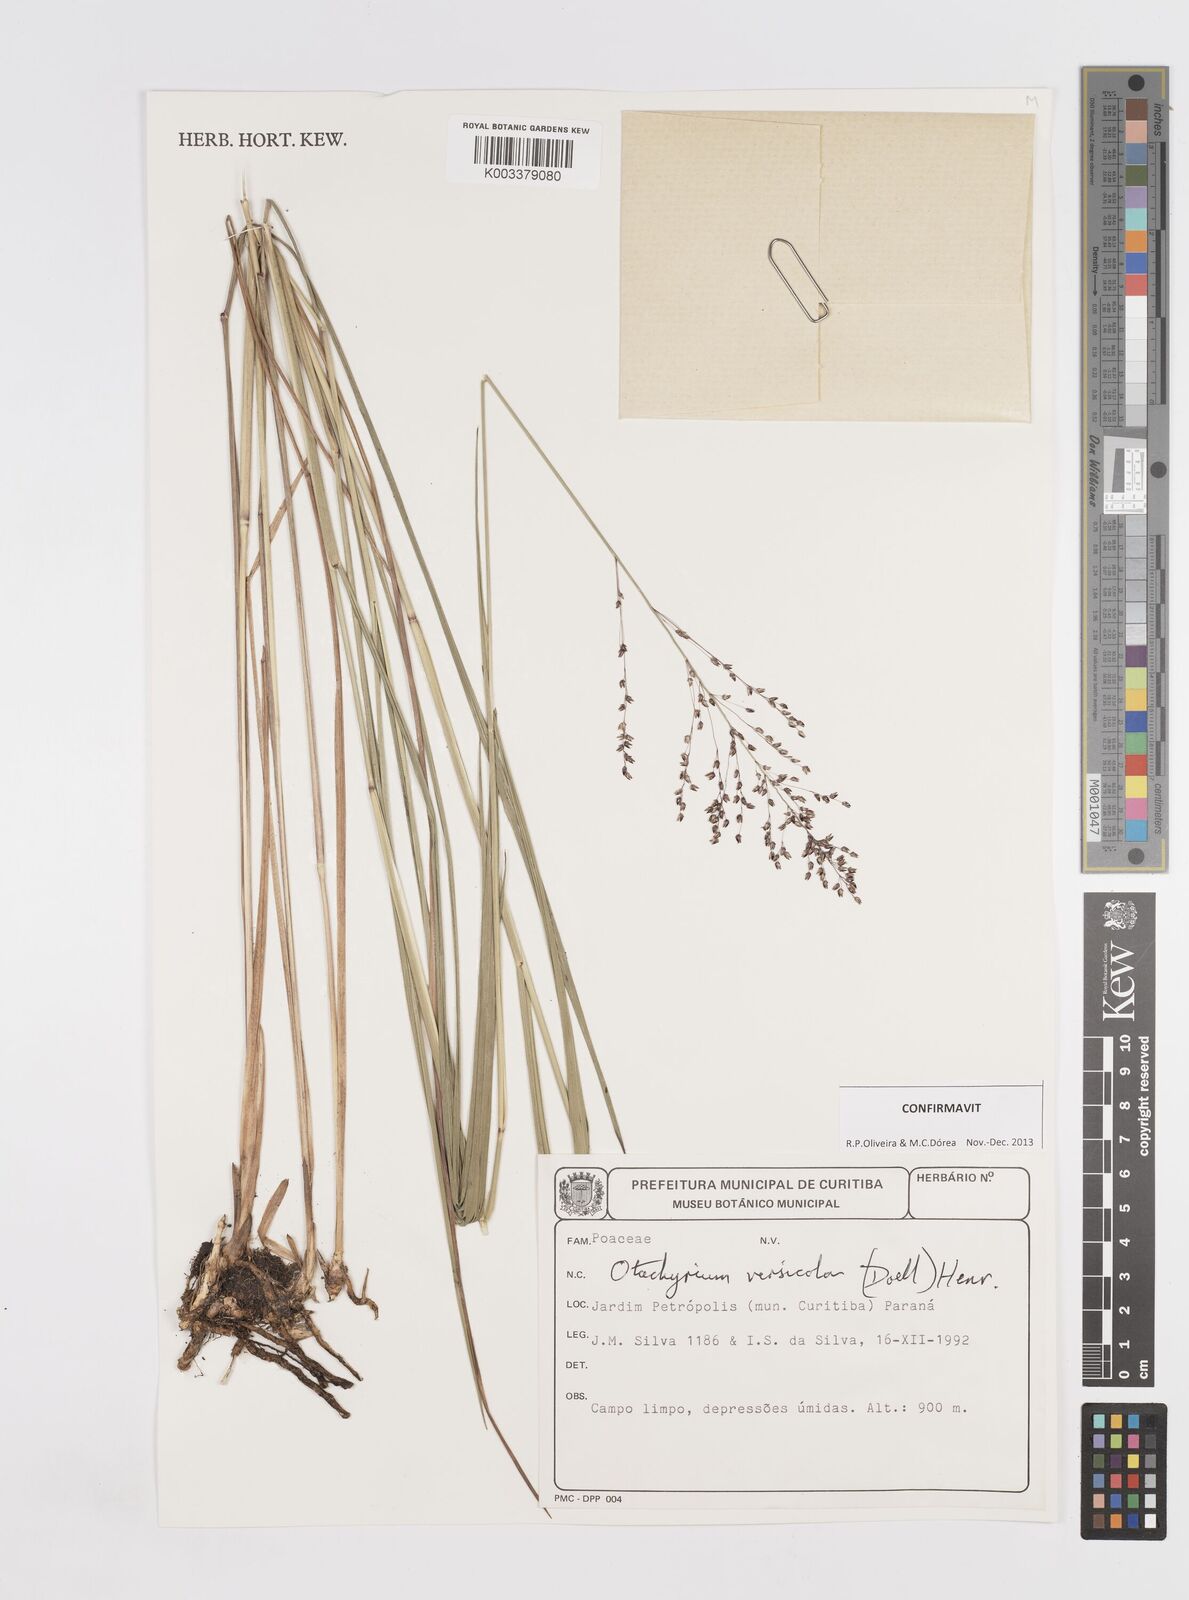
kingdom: Plantae
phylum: Tracheophyta
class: Liliopsida
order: Poales
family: Poaceae
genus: Otachyrium
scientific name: Otachyrium versicolor
